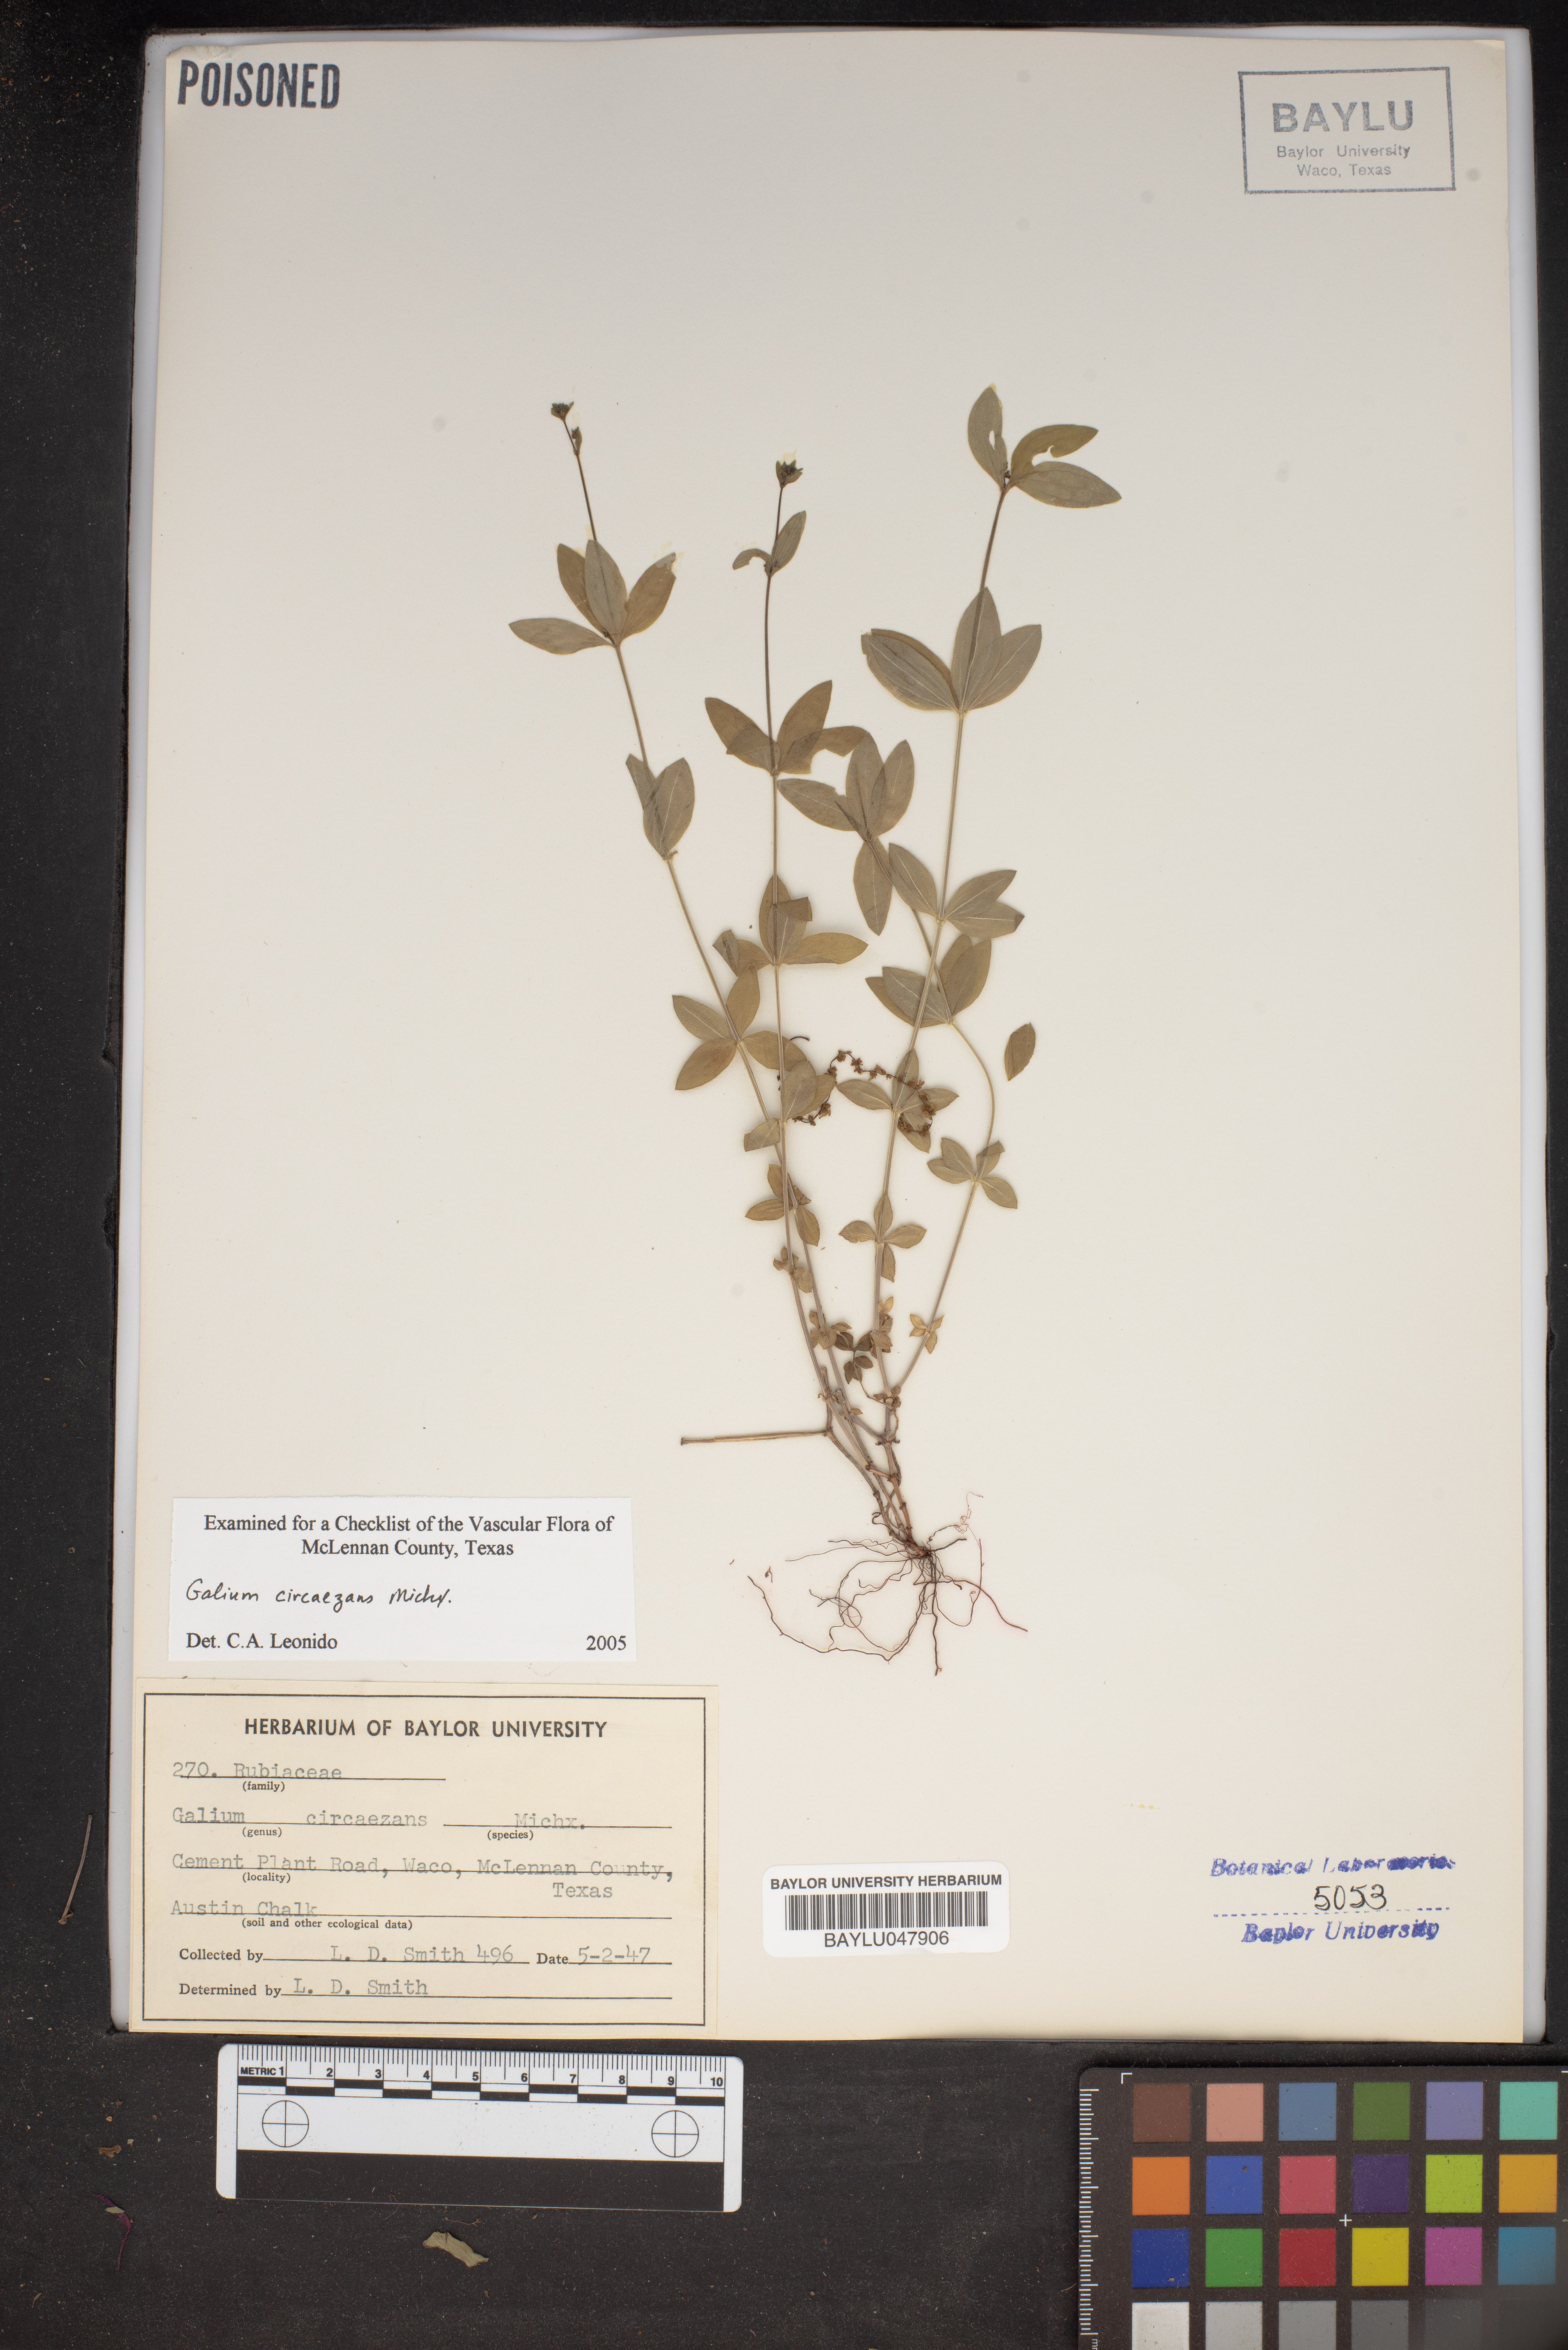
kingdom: Plantae
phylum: Tracheophyta
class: Magnoliopsida
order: Gentianales
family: Rubiaceae
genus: Galium
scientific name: Galium circaezans
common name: Forest bedstraw
